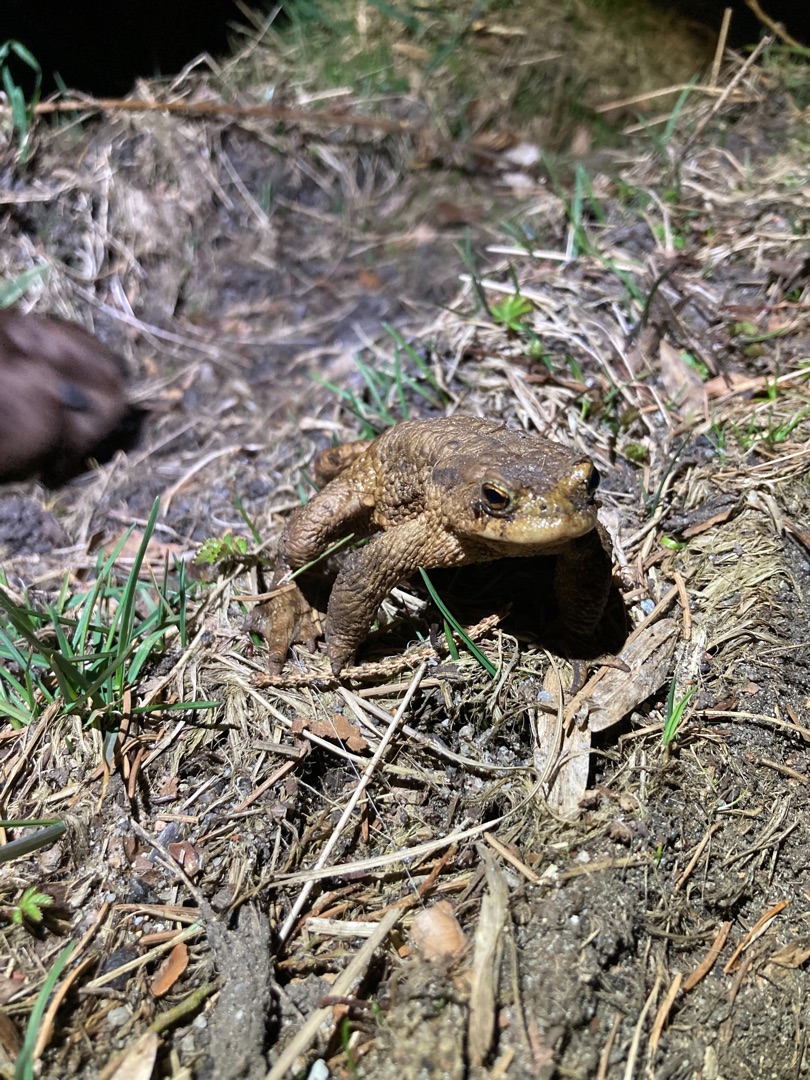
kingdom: Animalia
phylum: Chordata
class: Amphibia
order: Anura
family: Bufonidae
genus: Bufo
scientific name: Bufo bufo
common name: Skrubtudse
